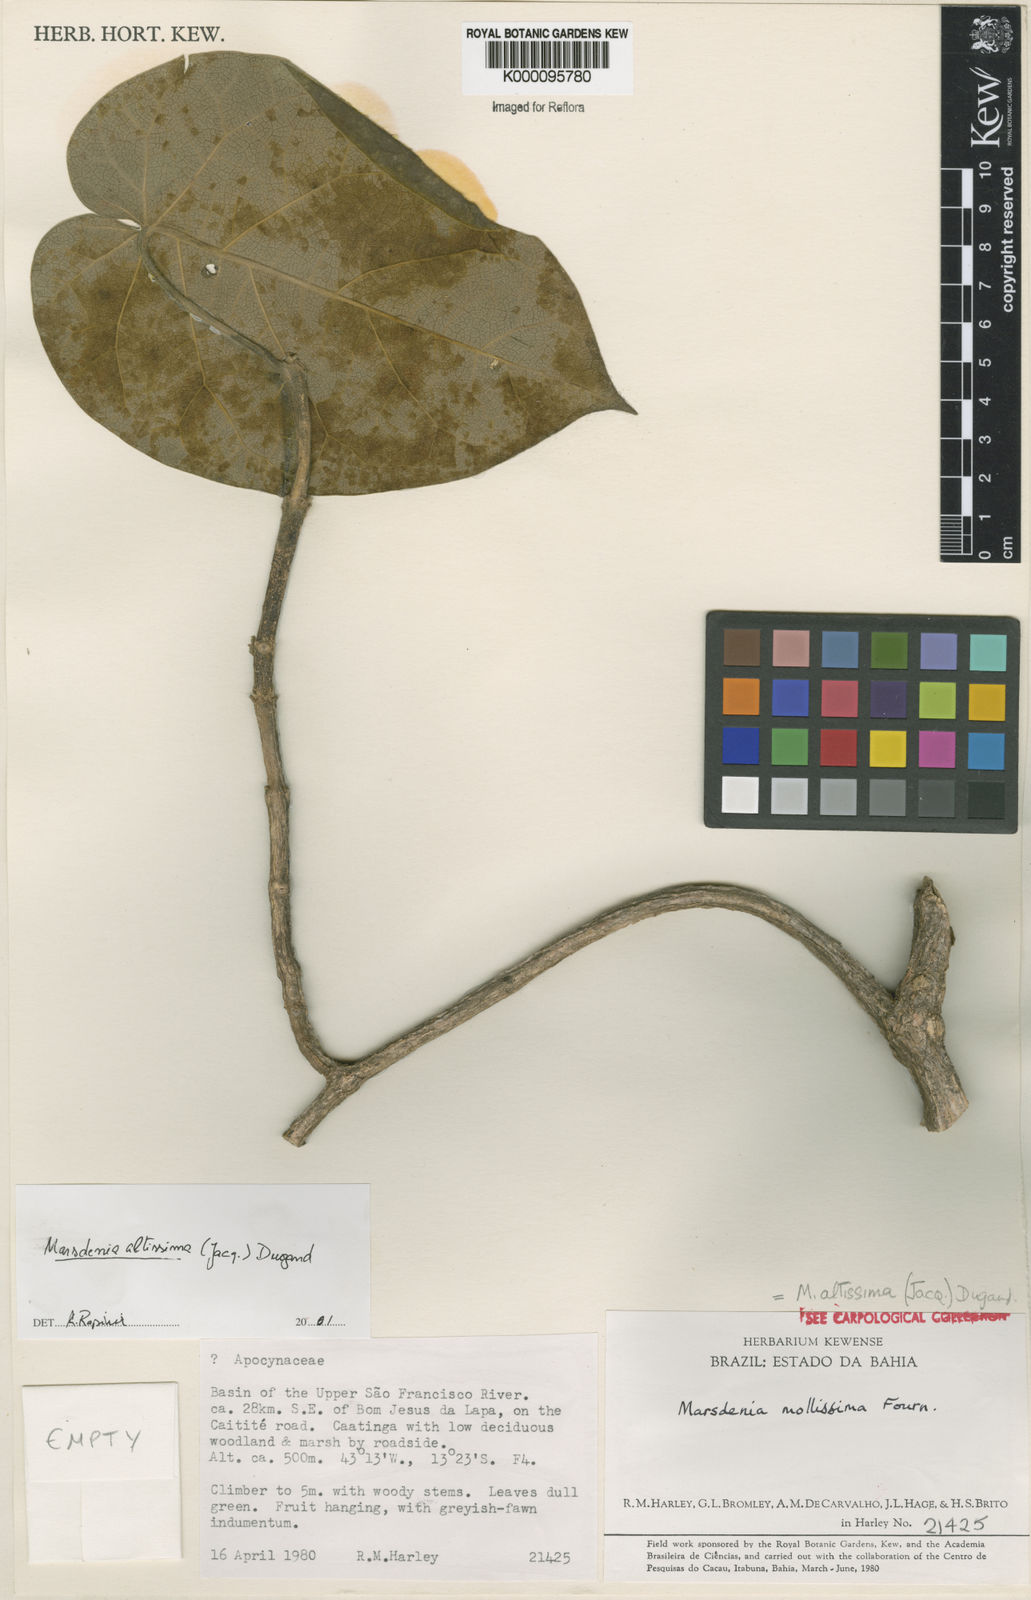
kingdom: Plantae
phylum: Tracheophyta
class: Magnoliopsida
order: Gentianales
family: Apocynaceae
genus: Ruehssia
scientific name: Ruehssia altissima
